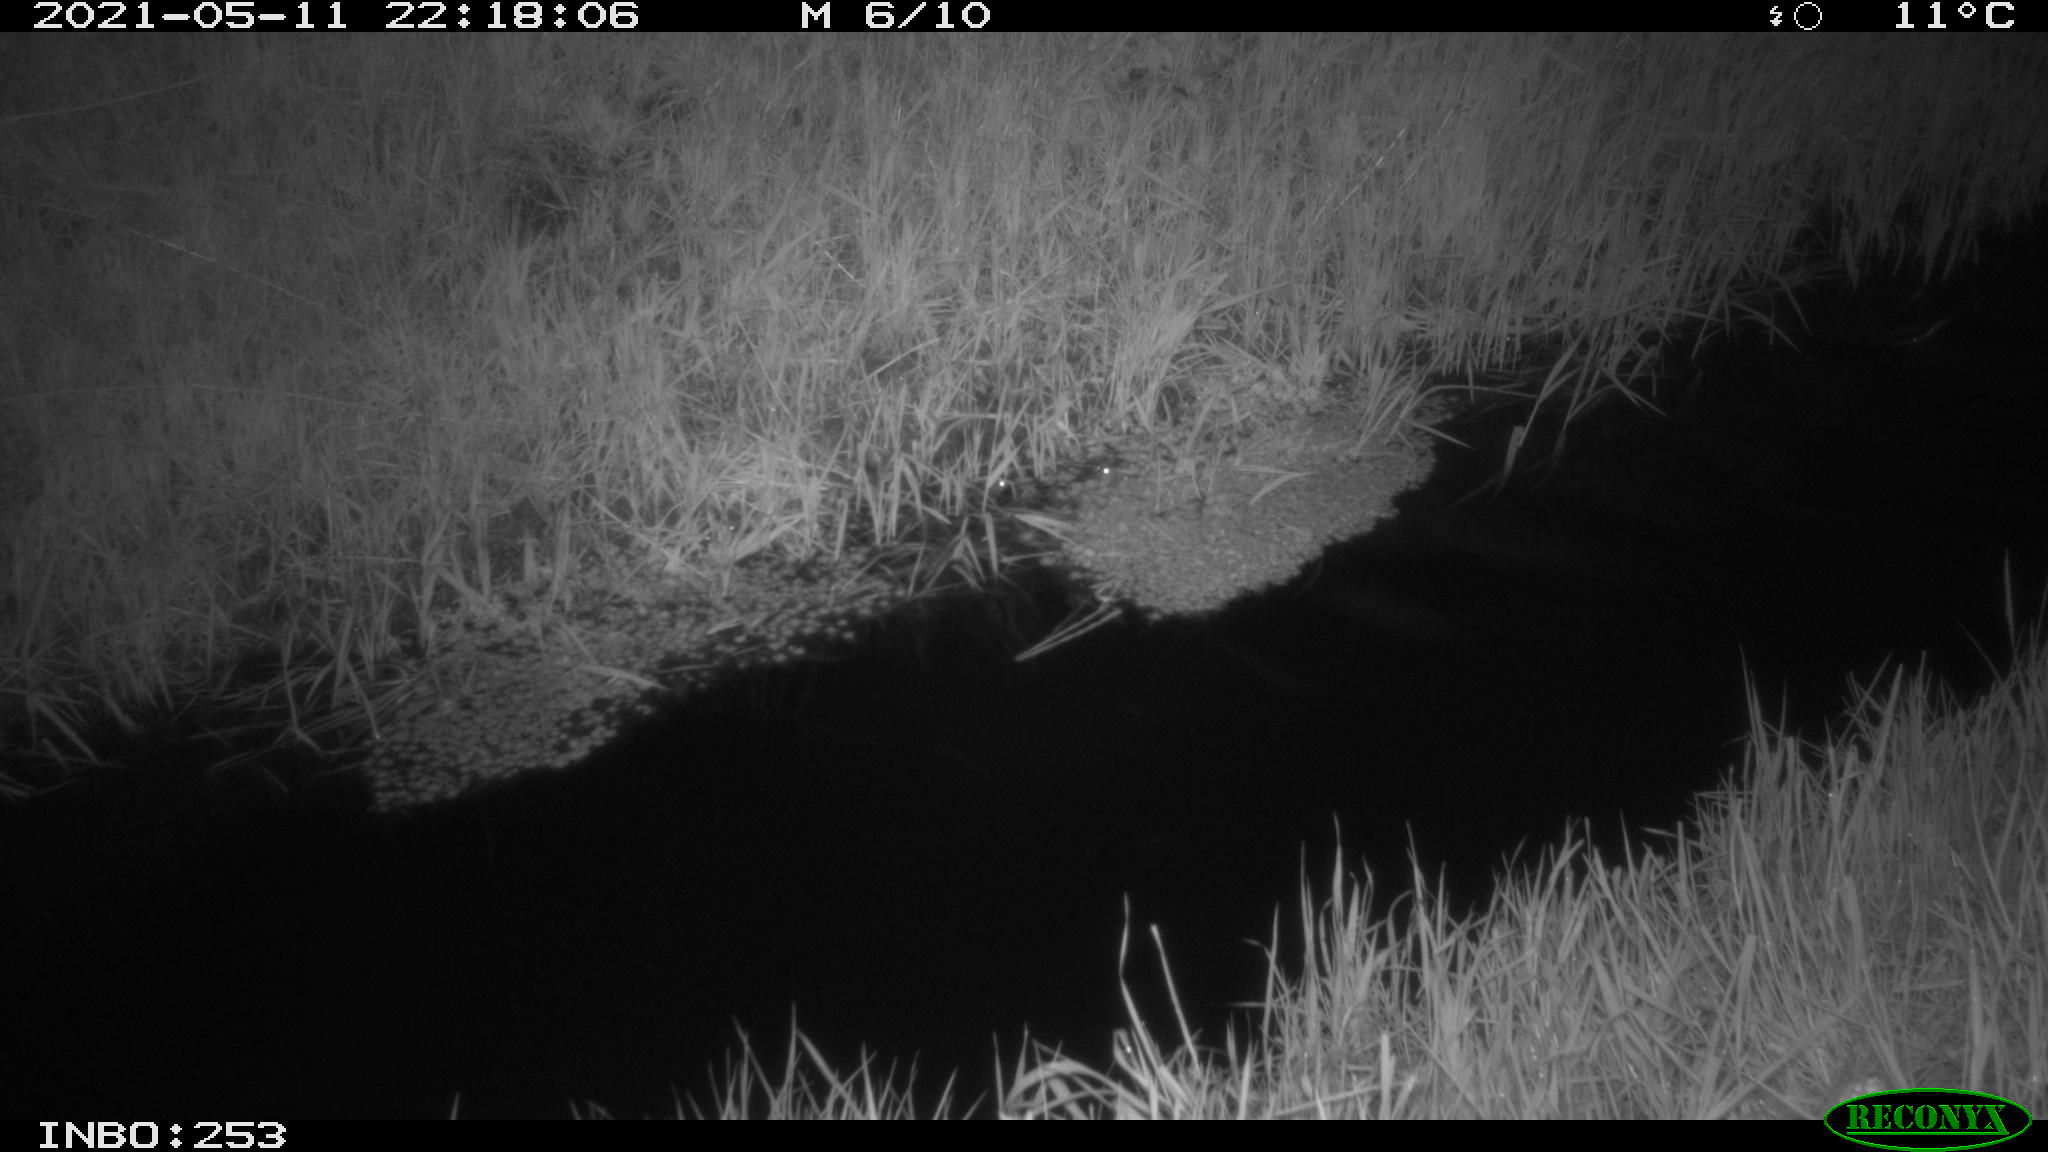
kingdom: Animalia
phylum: Chordata
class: Aves
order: Anseriformes
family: Anatidae
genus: Anas
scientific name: Anas platyrhynchos
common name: Mallard
